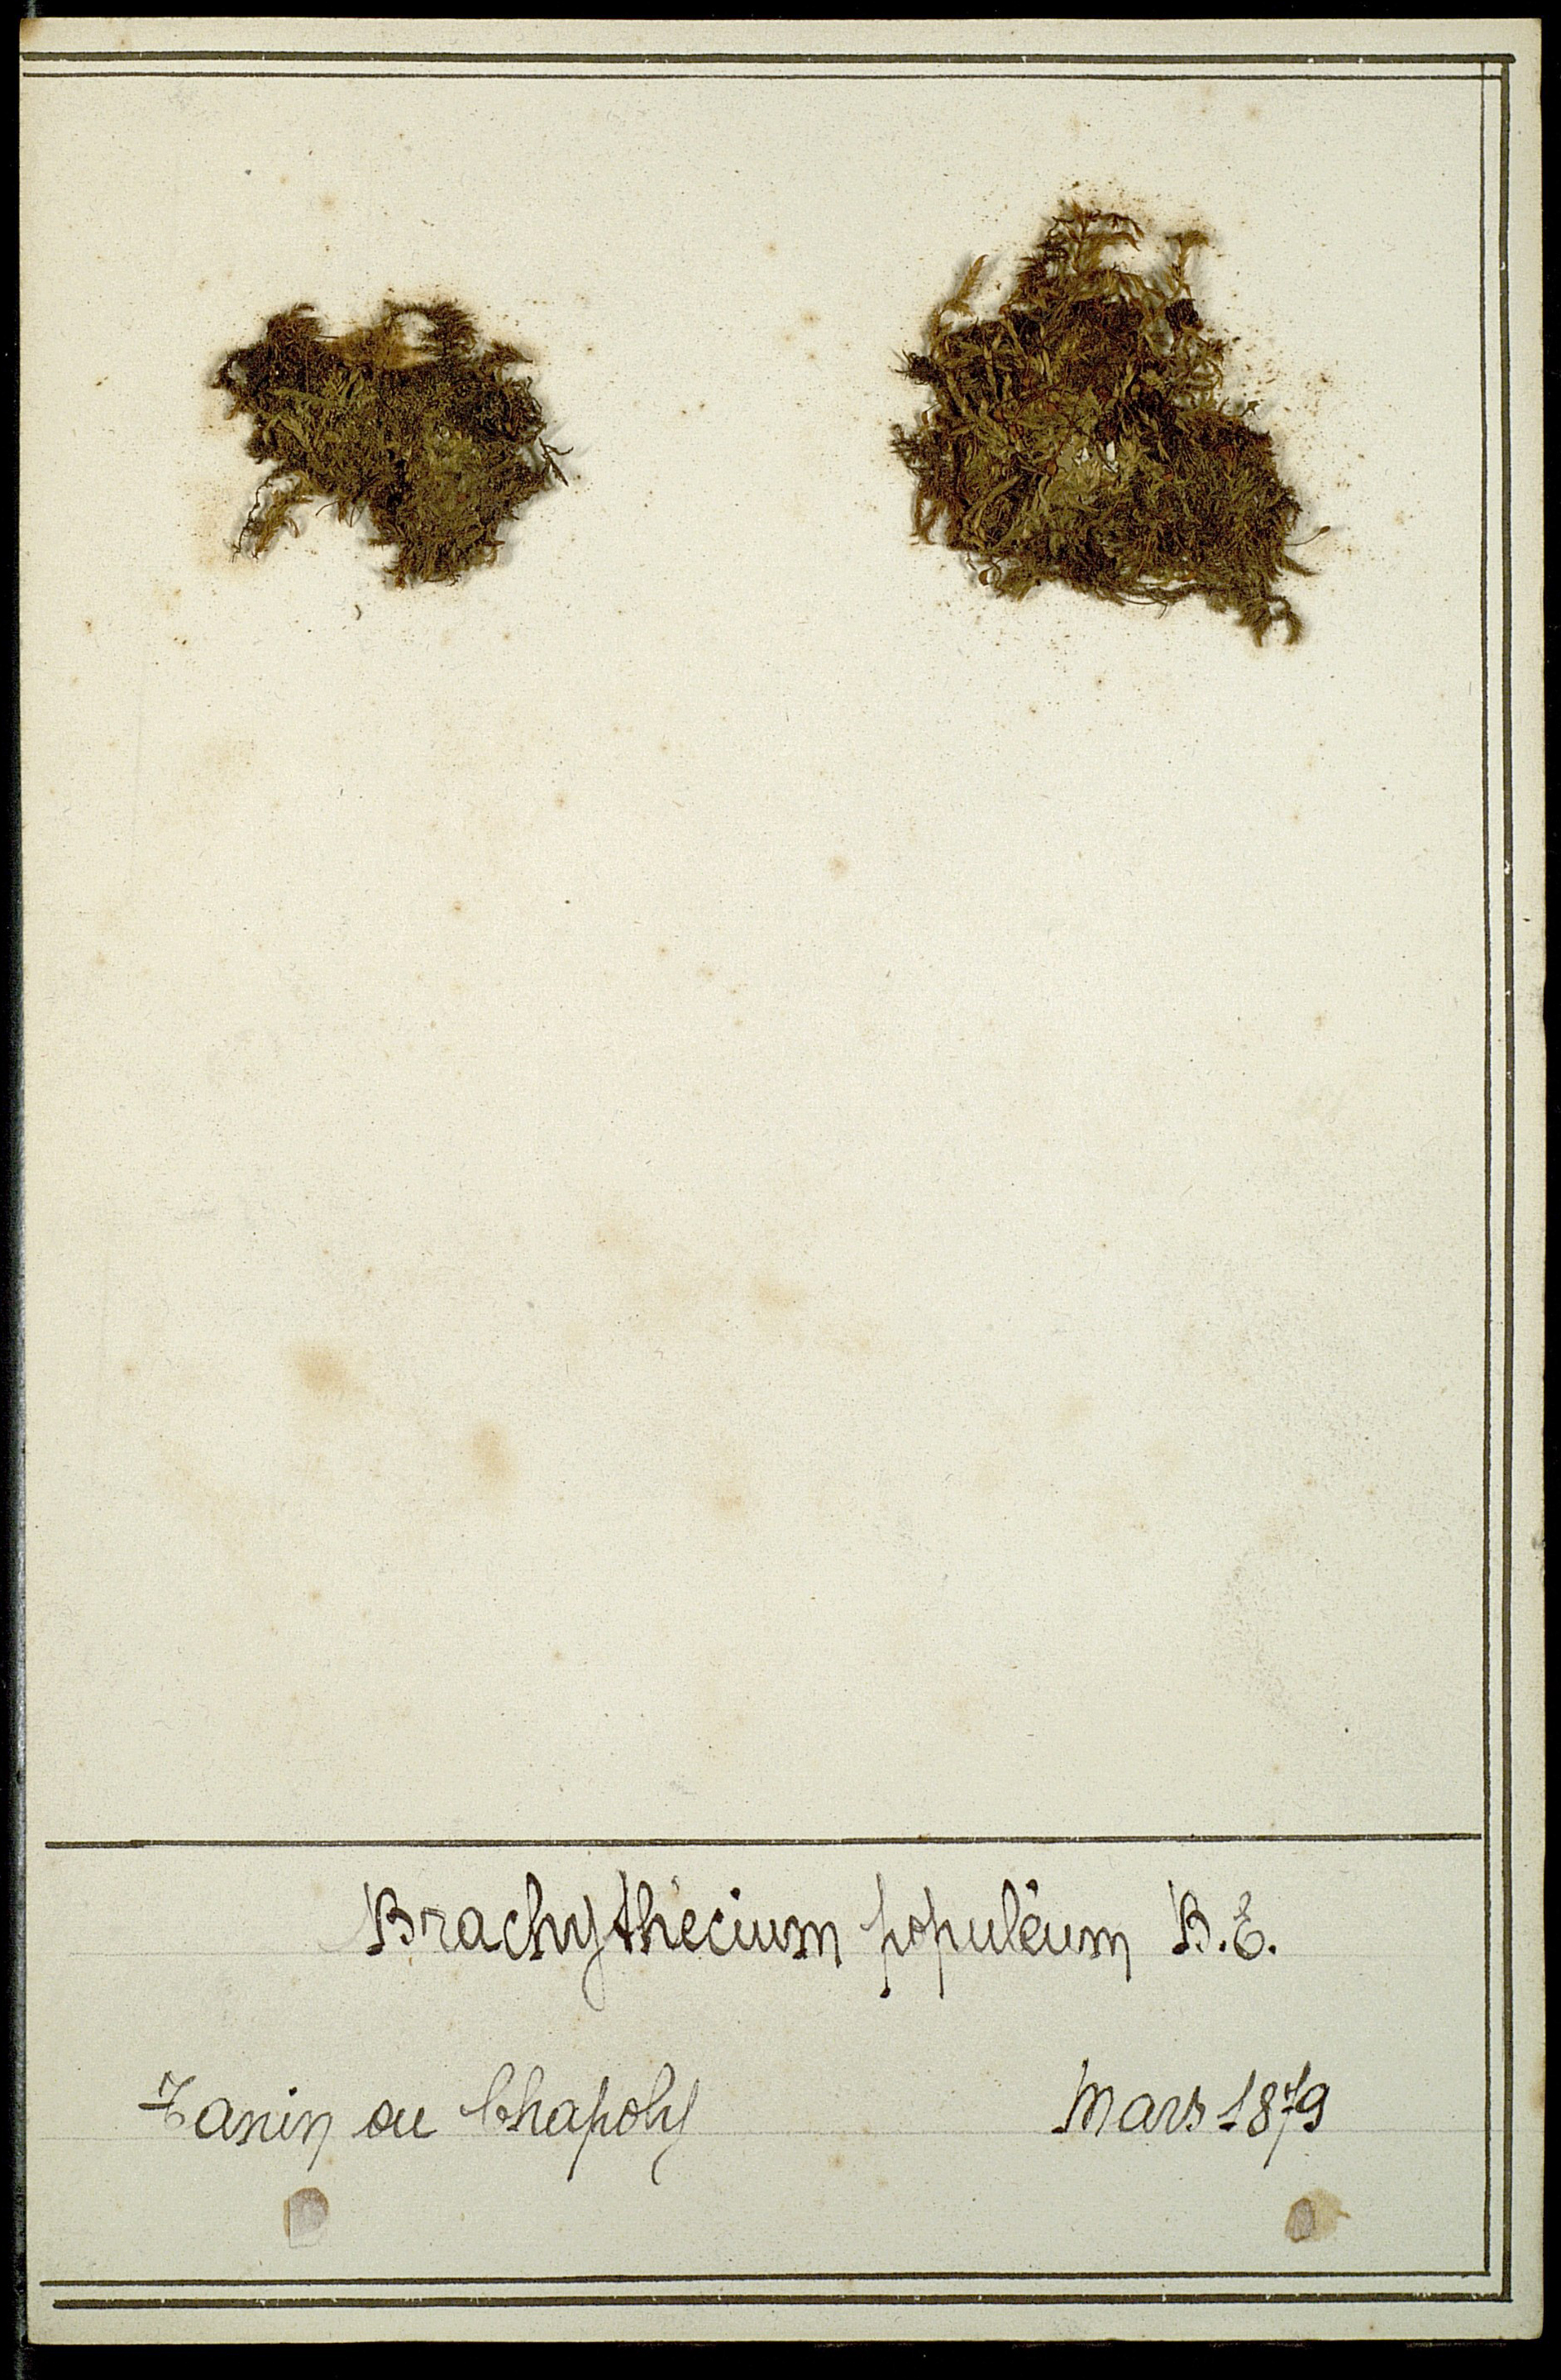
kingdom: Plantae
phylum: Bryophyta
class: Bryopsida
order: Hypnales
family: Brachytheciaceae
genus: Sciuro-hypnum
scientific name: Sciuro-hypnum populeum
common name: Matted feather-moss
